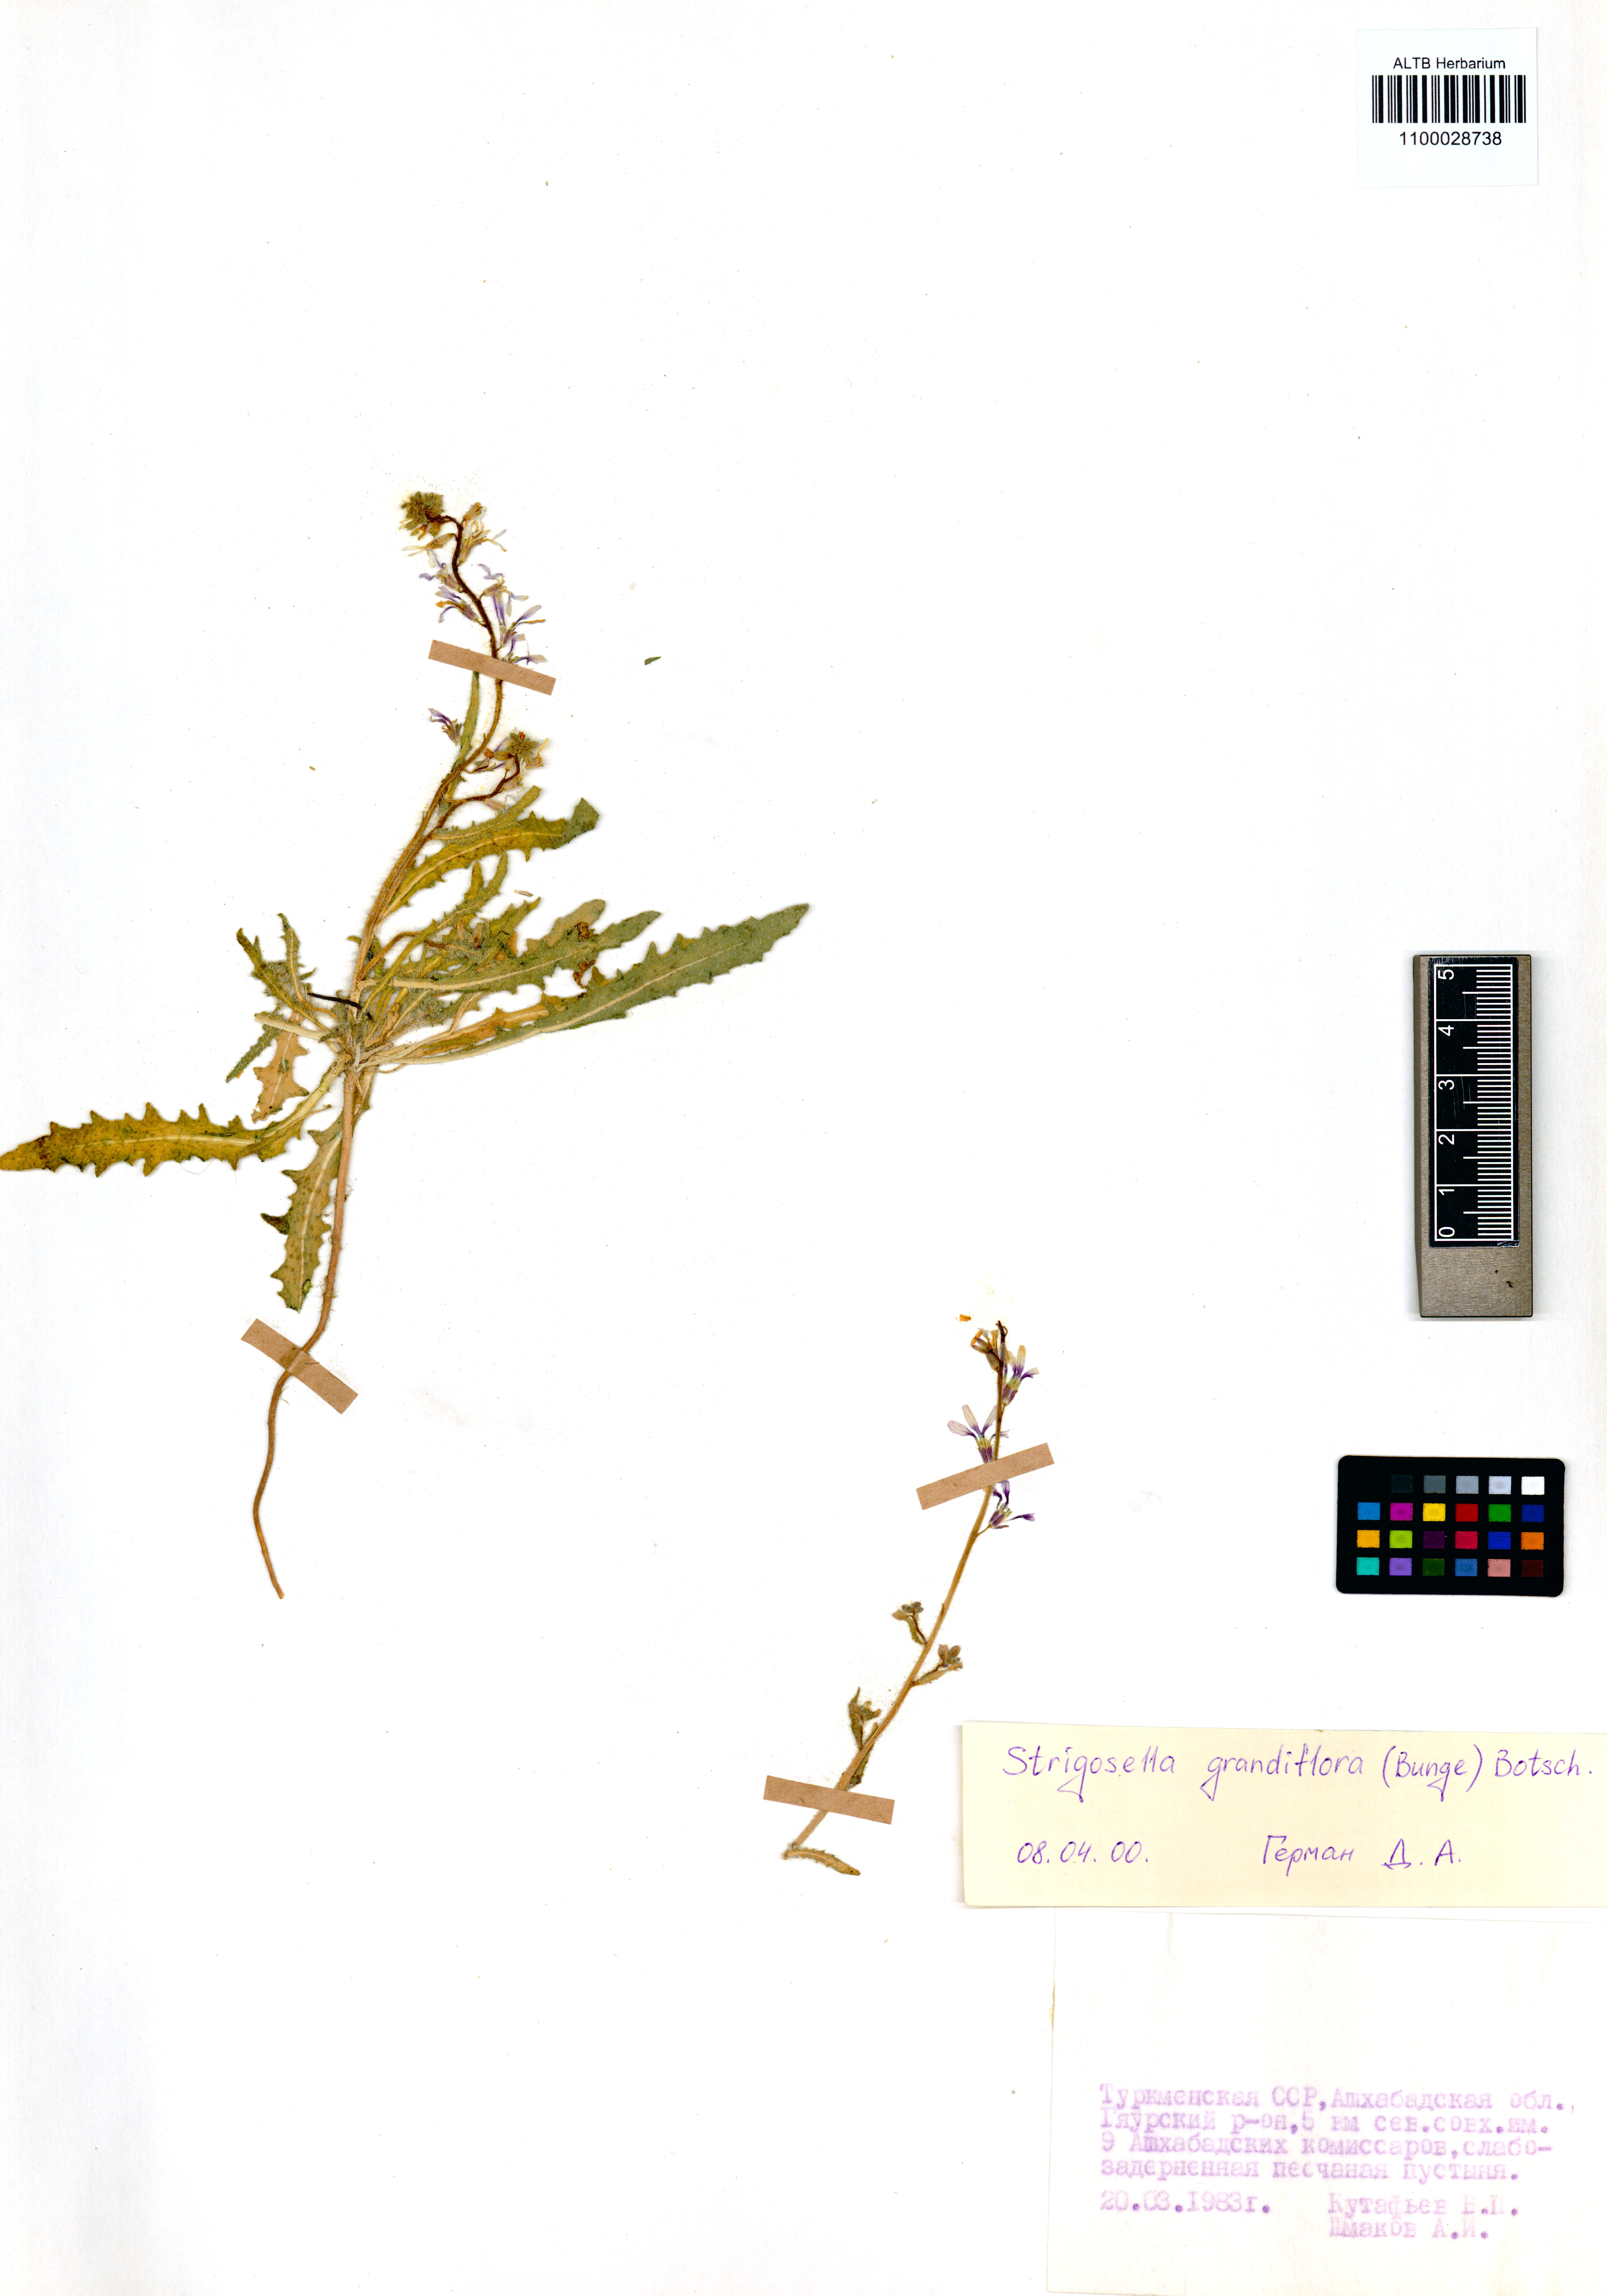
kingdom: Plantae
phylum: Tracheophyta
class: Magnoliopsida
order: Brassicales
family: Brassicaceae
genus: Strigosella
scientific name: Strigosella grandiflora
